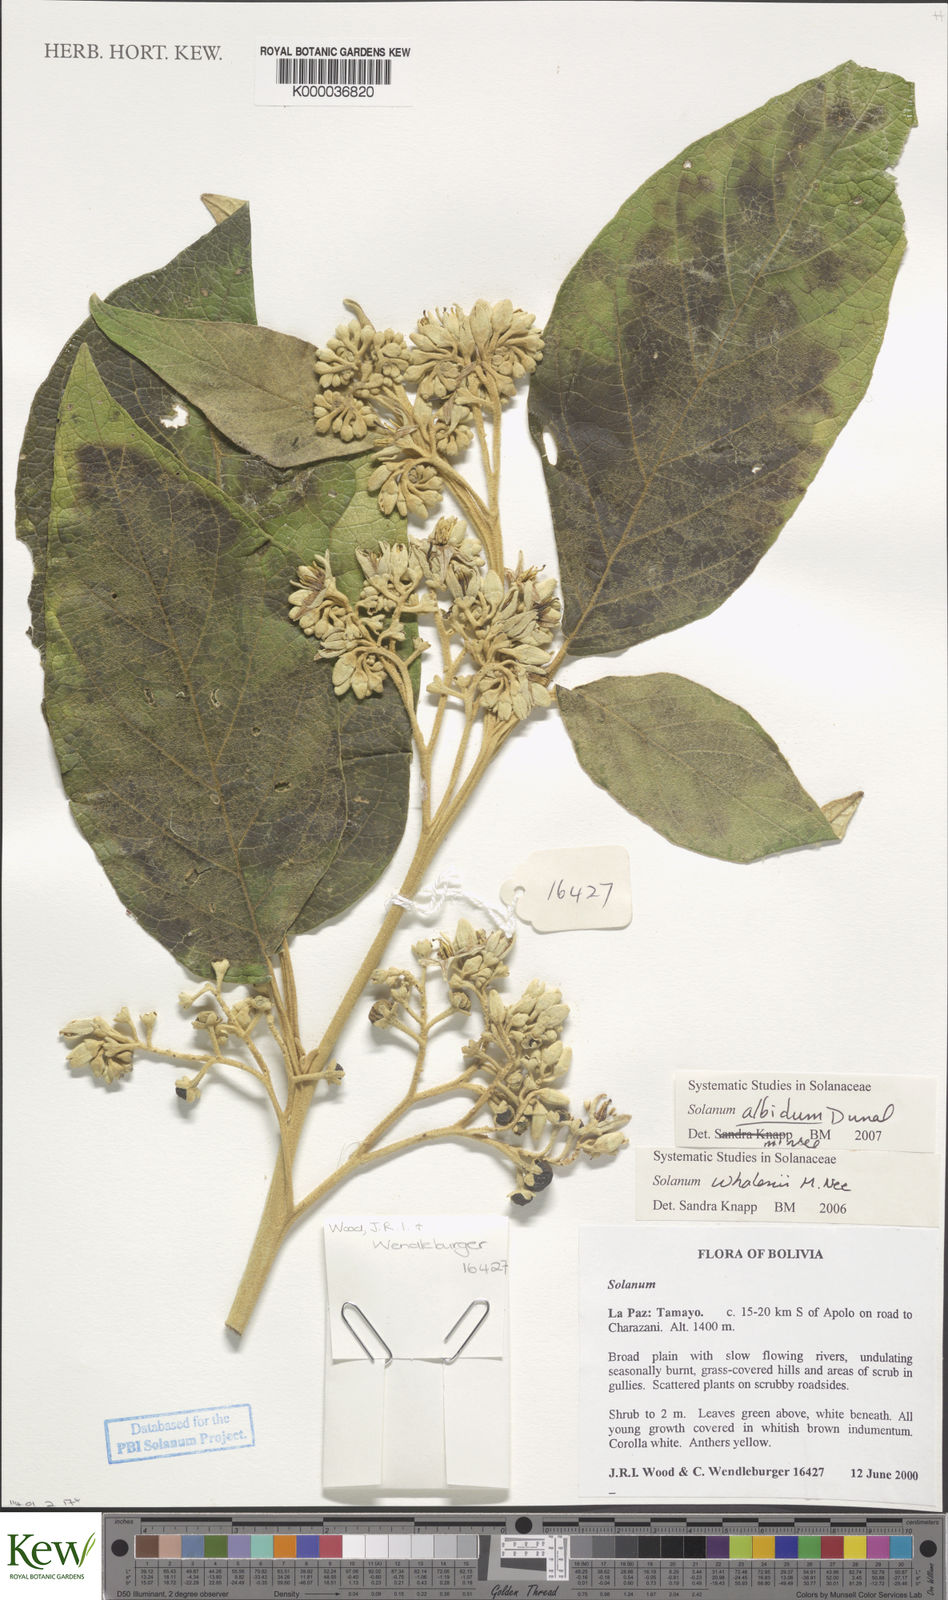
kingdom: Plantae
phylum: Tracheophyta
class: Magnoliopsida
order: Solanales
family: Solanaceae
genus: Solanum
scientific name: Solanum whalenii
